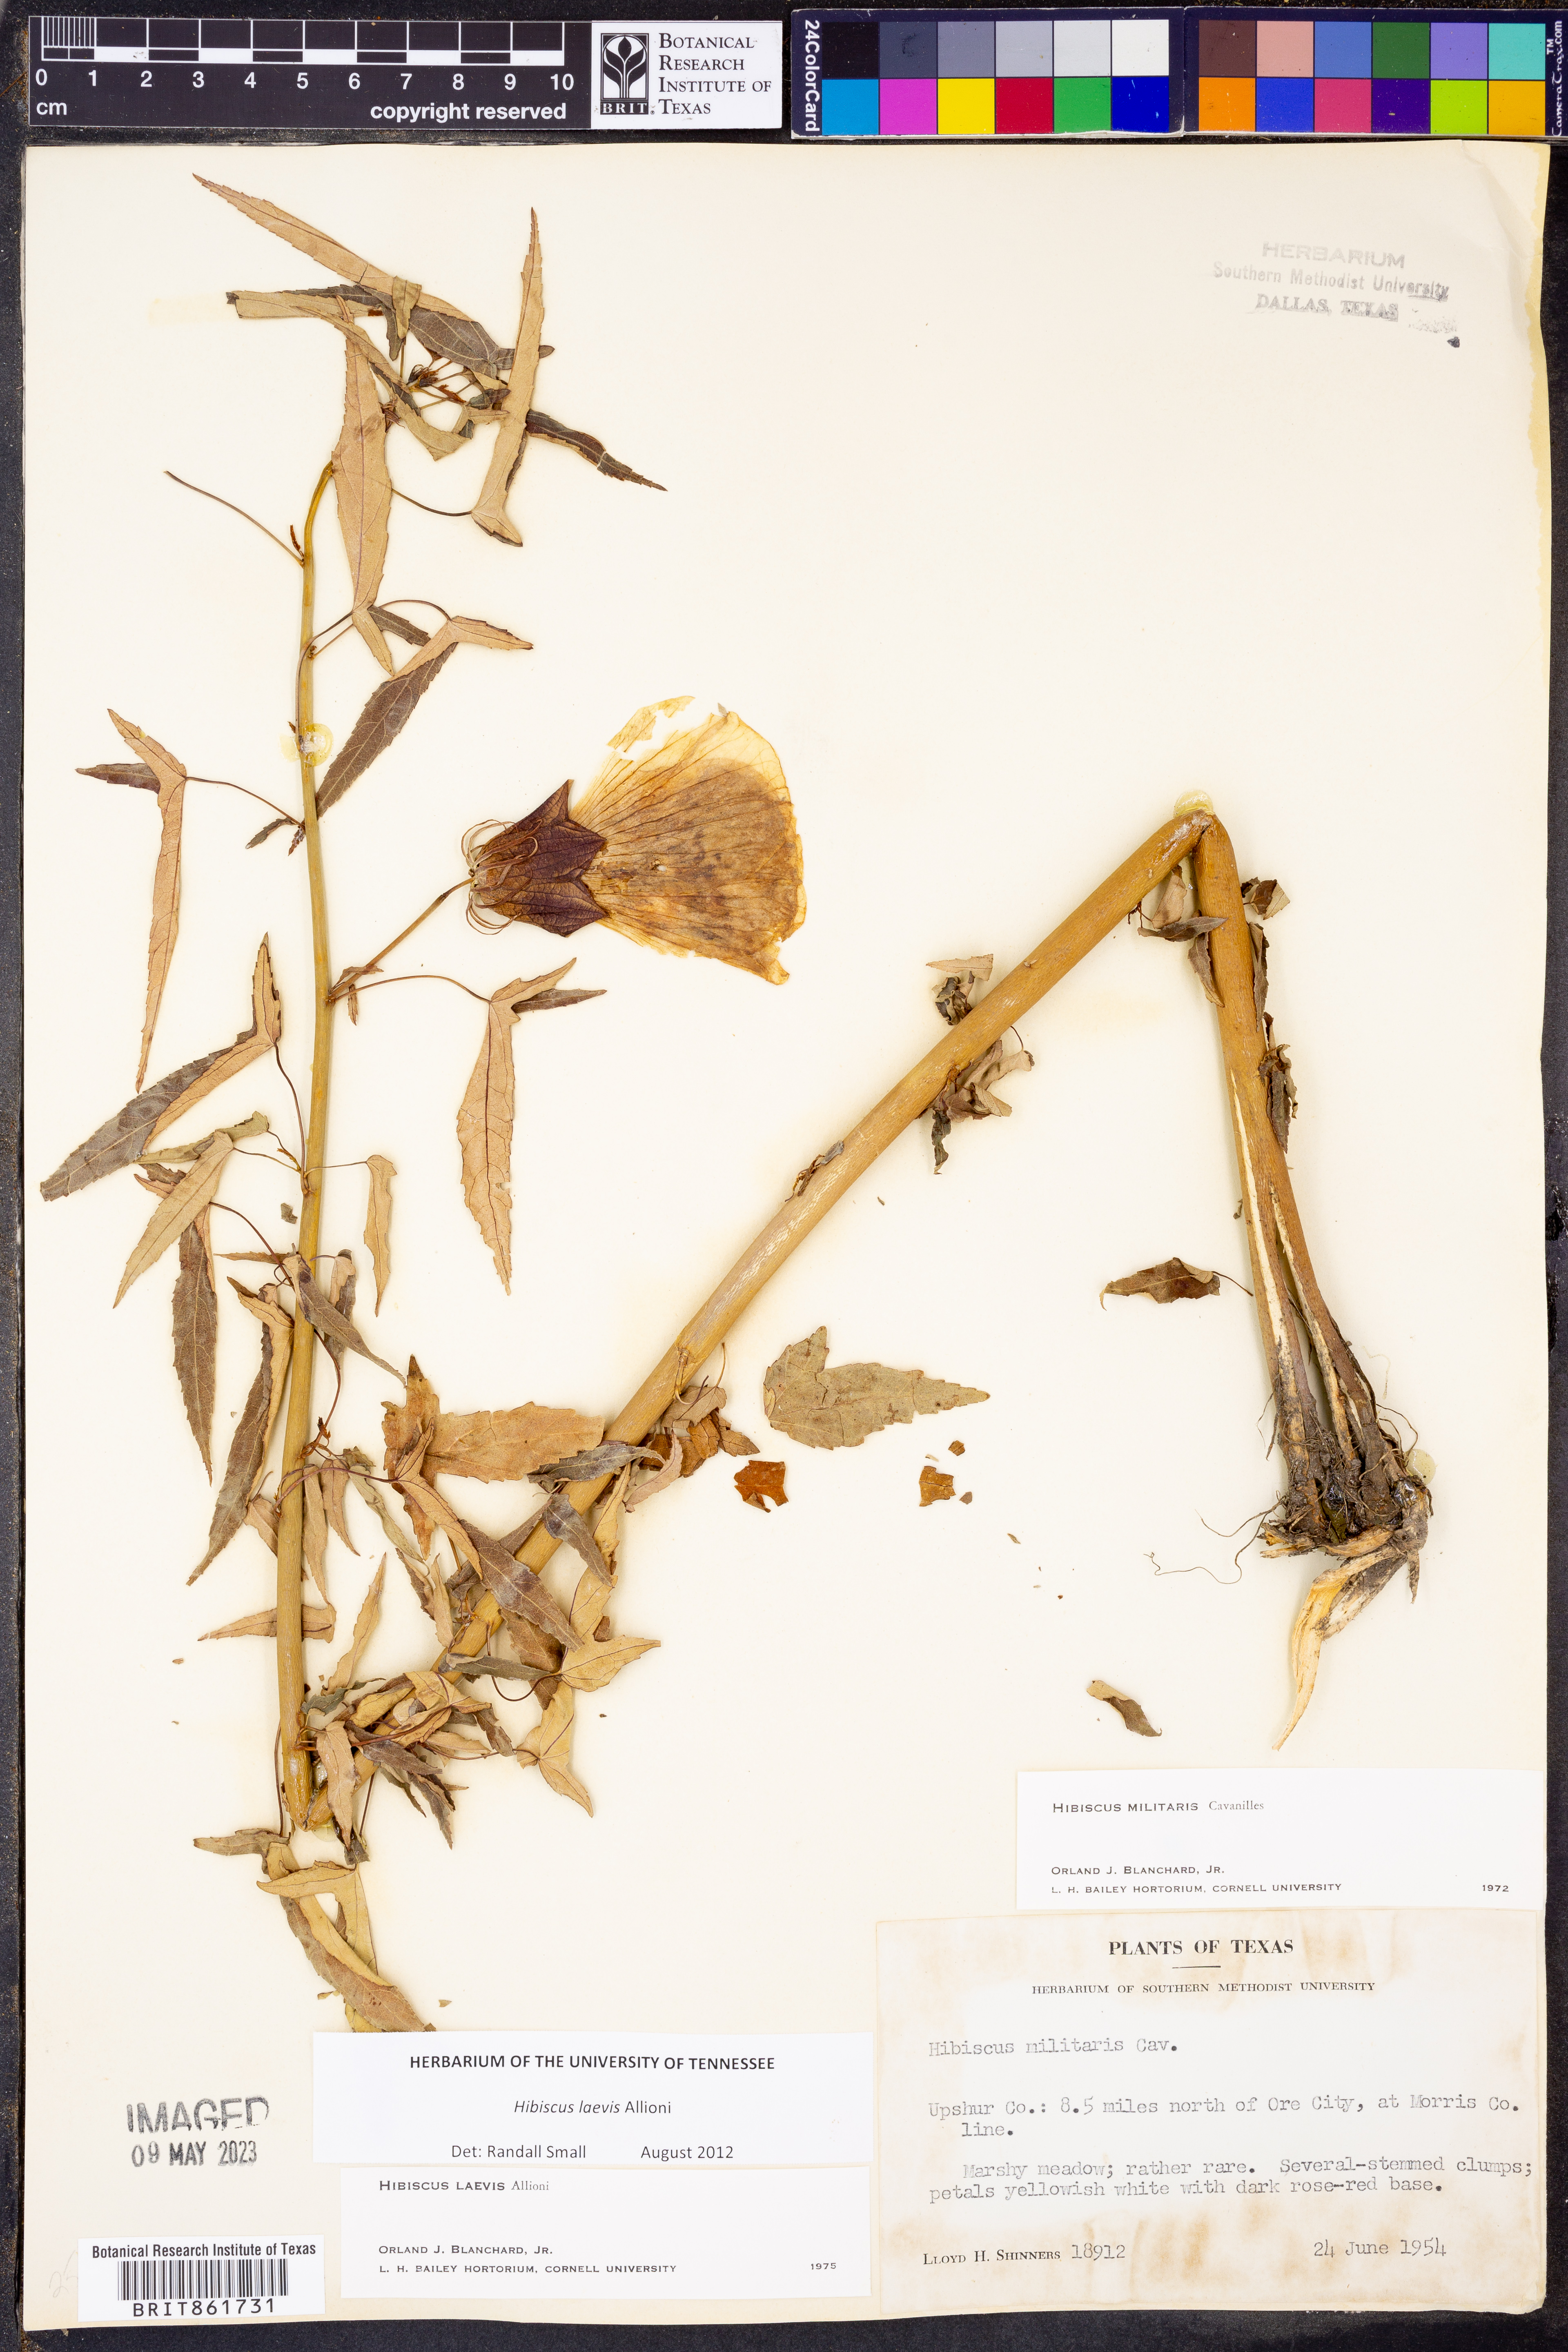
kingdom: Plantae
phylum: Tracheophyta
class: Magnoliopsida
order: Malvales
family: Malvaceae
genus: Hibiscus
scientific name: Hibiscus laevis
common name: Scarlet rose-mallow
